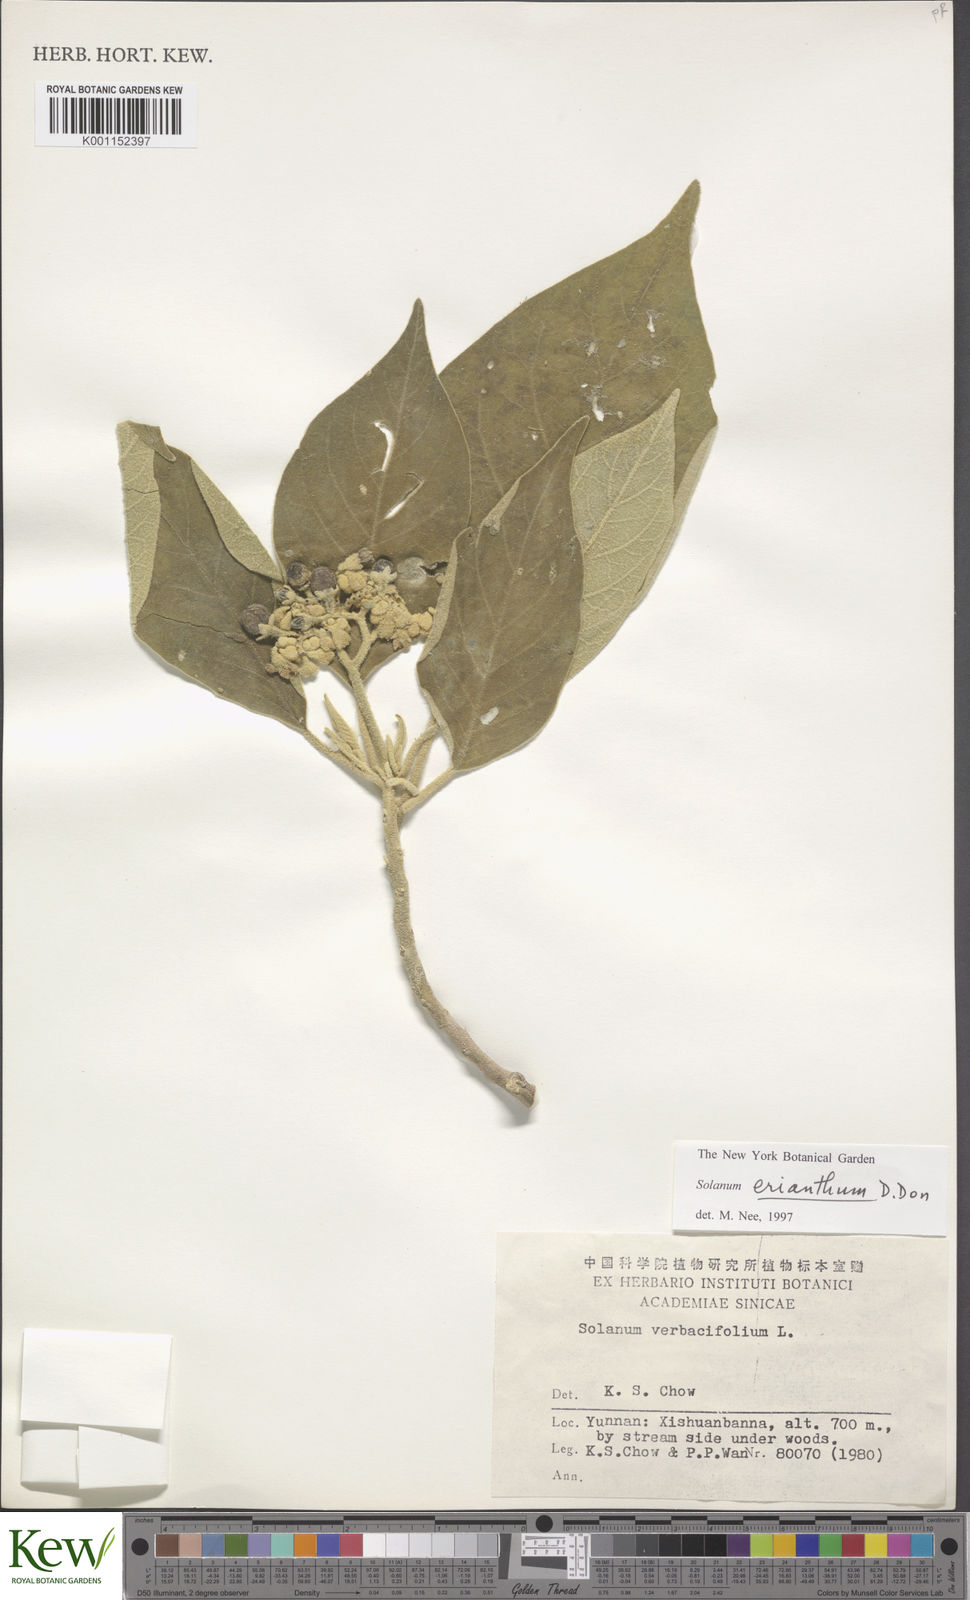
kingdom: Plantae
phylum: Tracheophyta
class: Magnoliopsida
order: Solanales
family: Solanaceae
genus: Solanum
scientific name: Solanum erianthum
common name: Tobacco-tree
